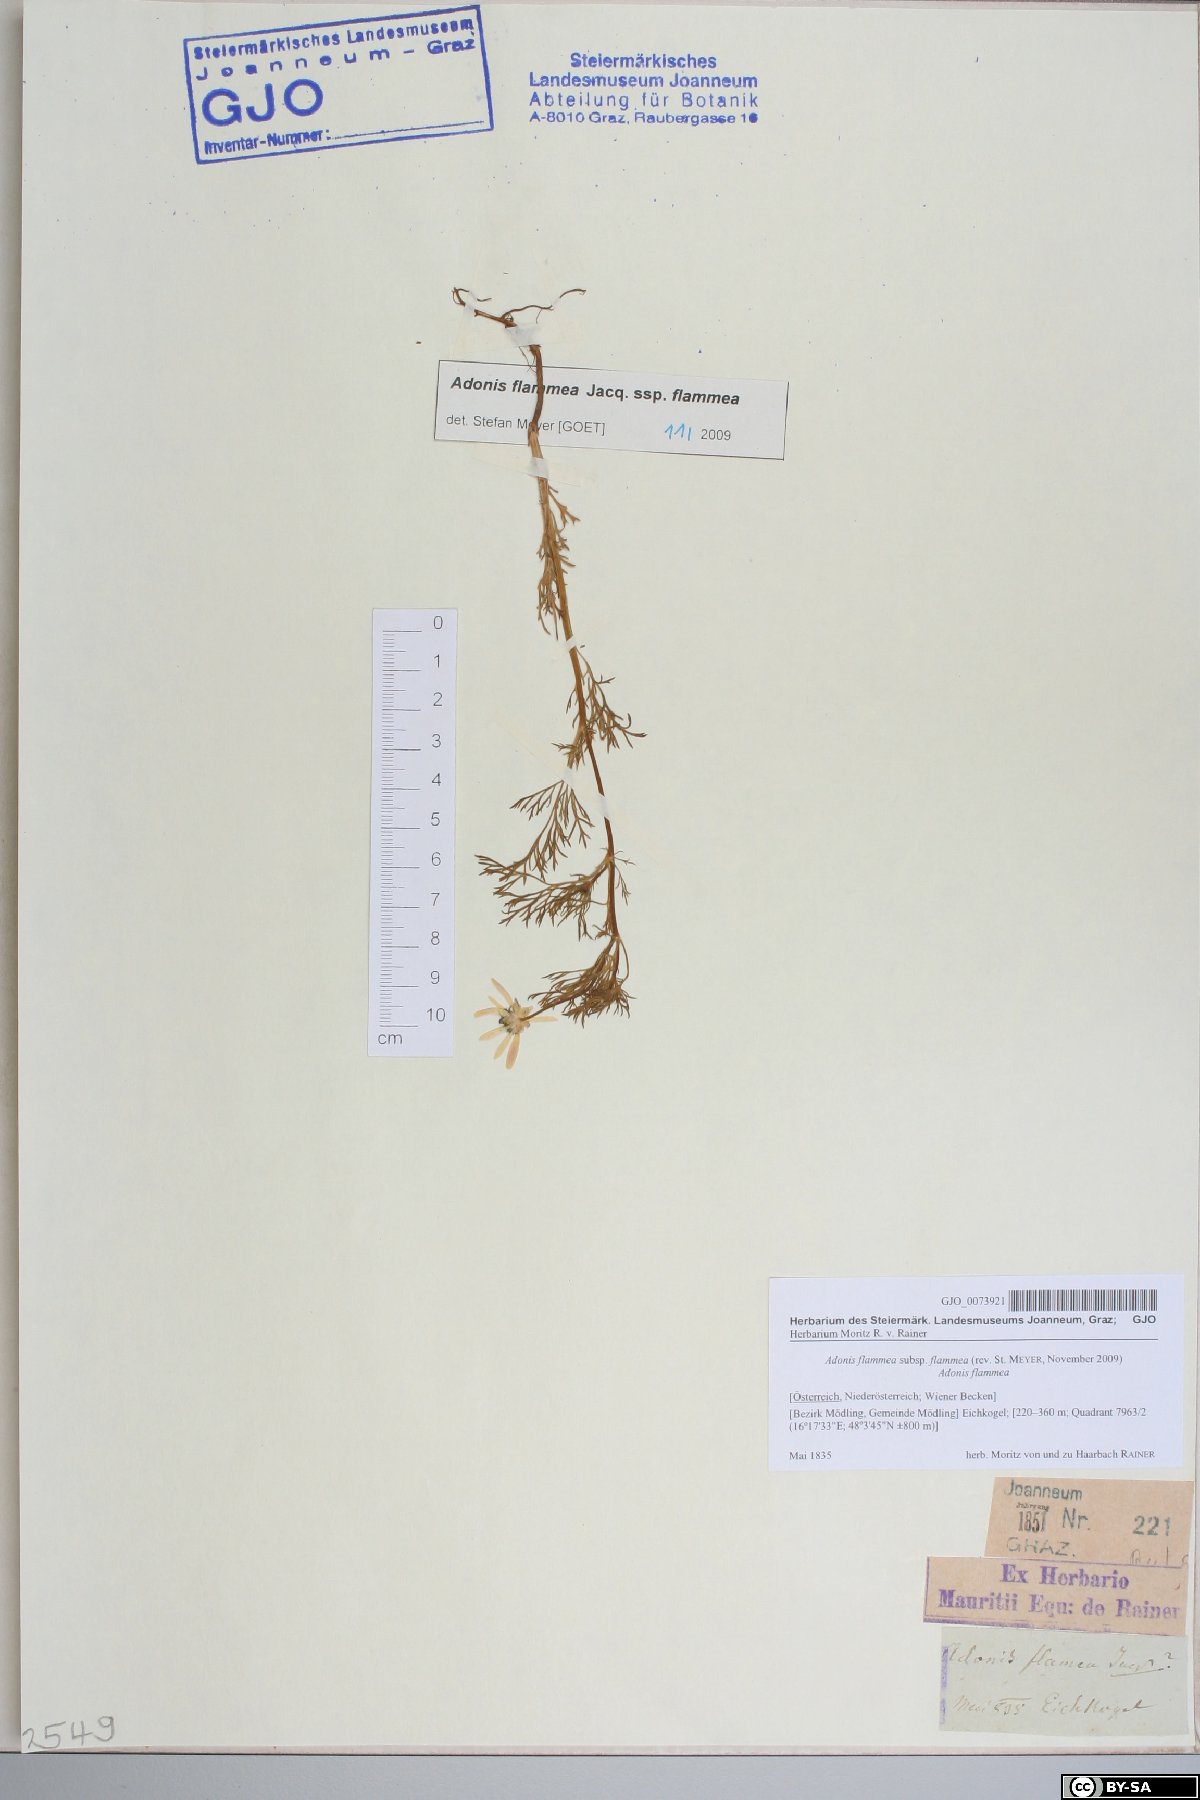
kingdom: Plantae
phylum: Tracheophyta
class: Magnoliopsida
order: Ranunculales
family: Ranunculaceae
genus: Adonis
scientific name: Adonis flammea
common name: Large pheasant's-eye
